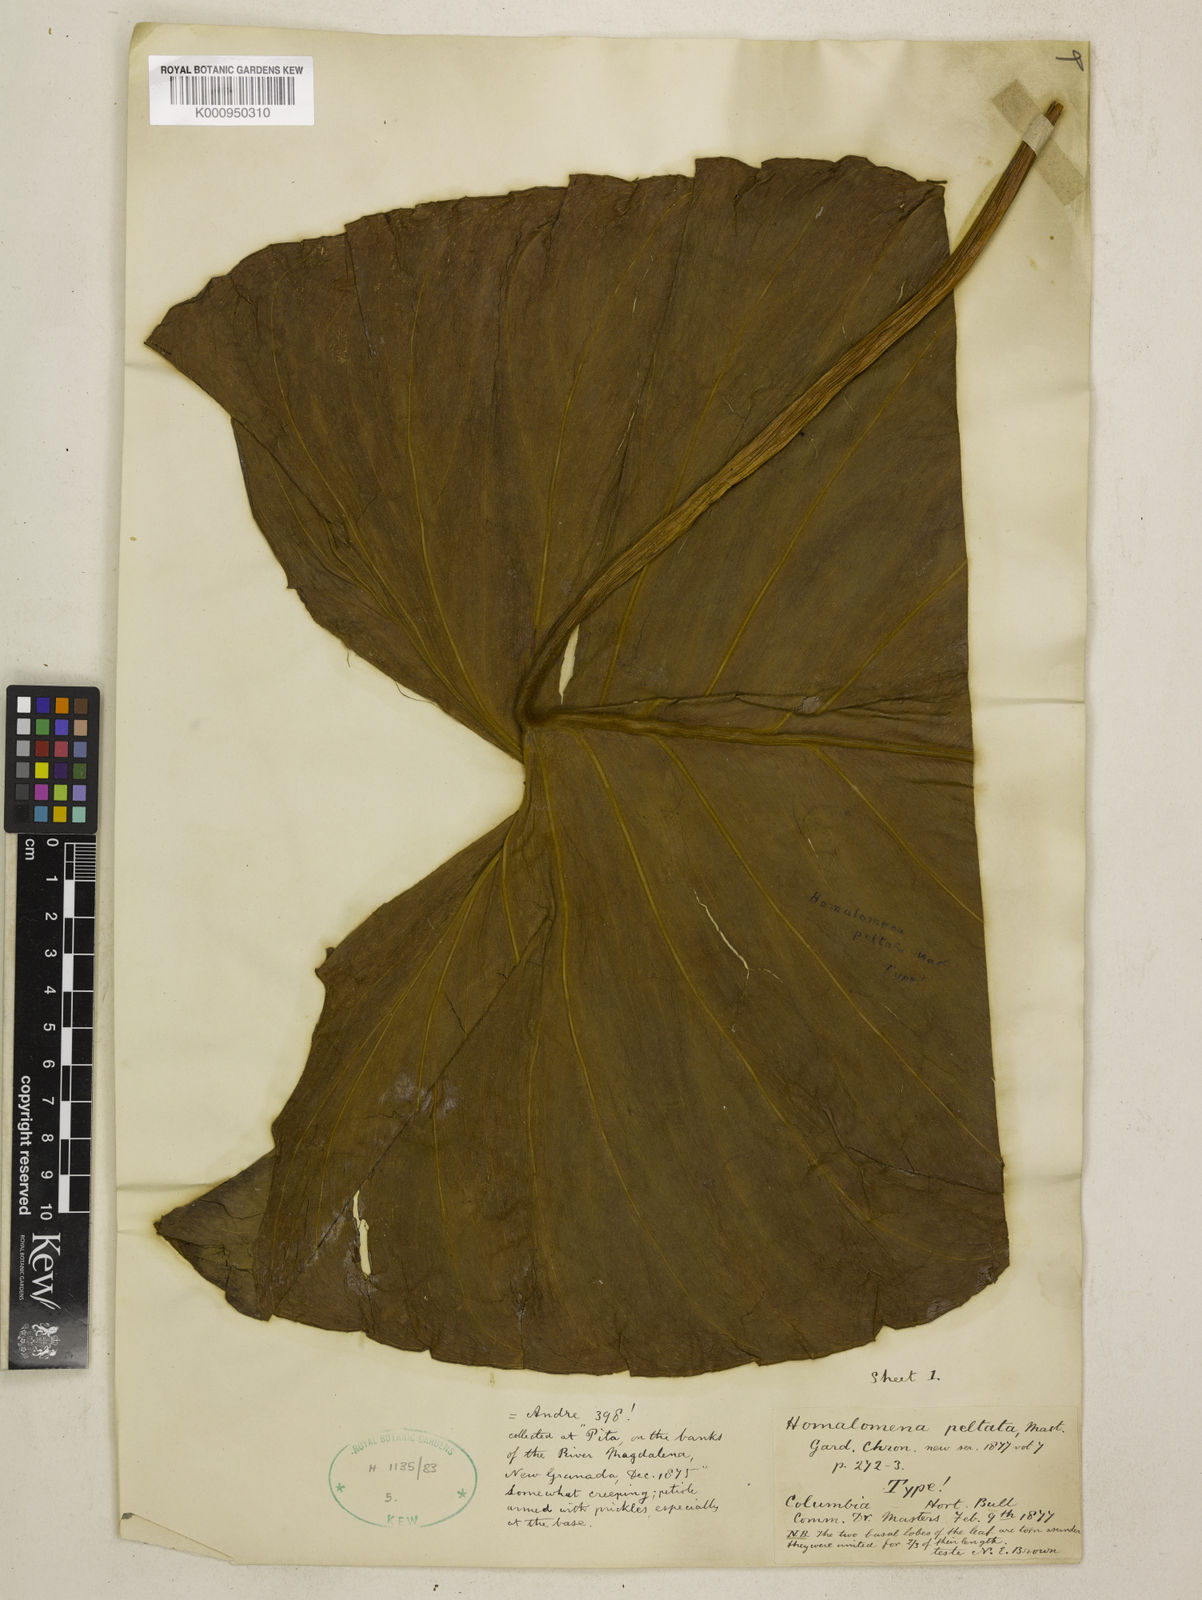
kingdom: Plantae
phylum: Tracheophyta
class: Liliopsida
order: Alismatales
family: Araceae
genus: Adelonema
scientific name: Adelonema peltatum
